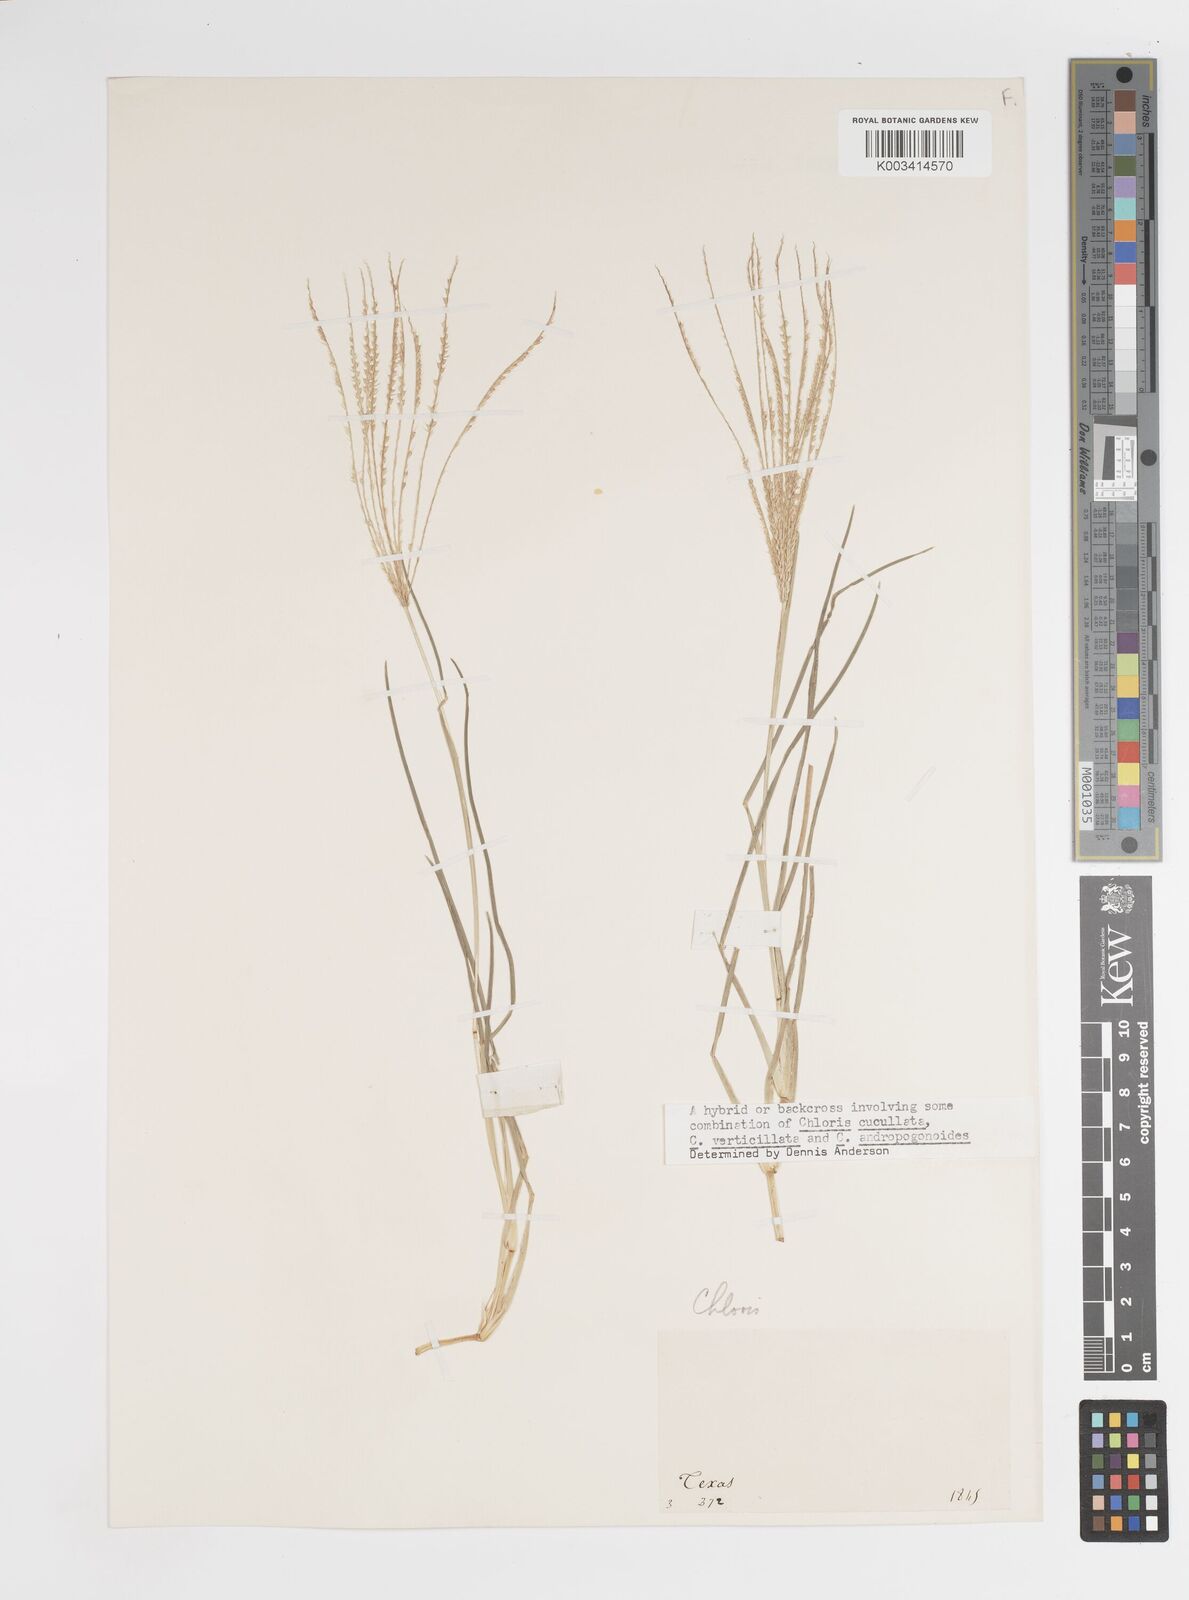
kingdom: Plantae
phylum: Tracheophyta
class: Liliopsida
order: Poales
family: Poaceae
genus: Chloris
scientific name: Chloris verticillata
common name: Tumble windmill grass
